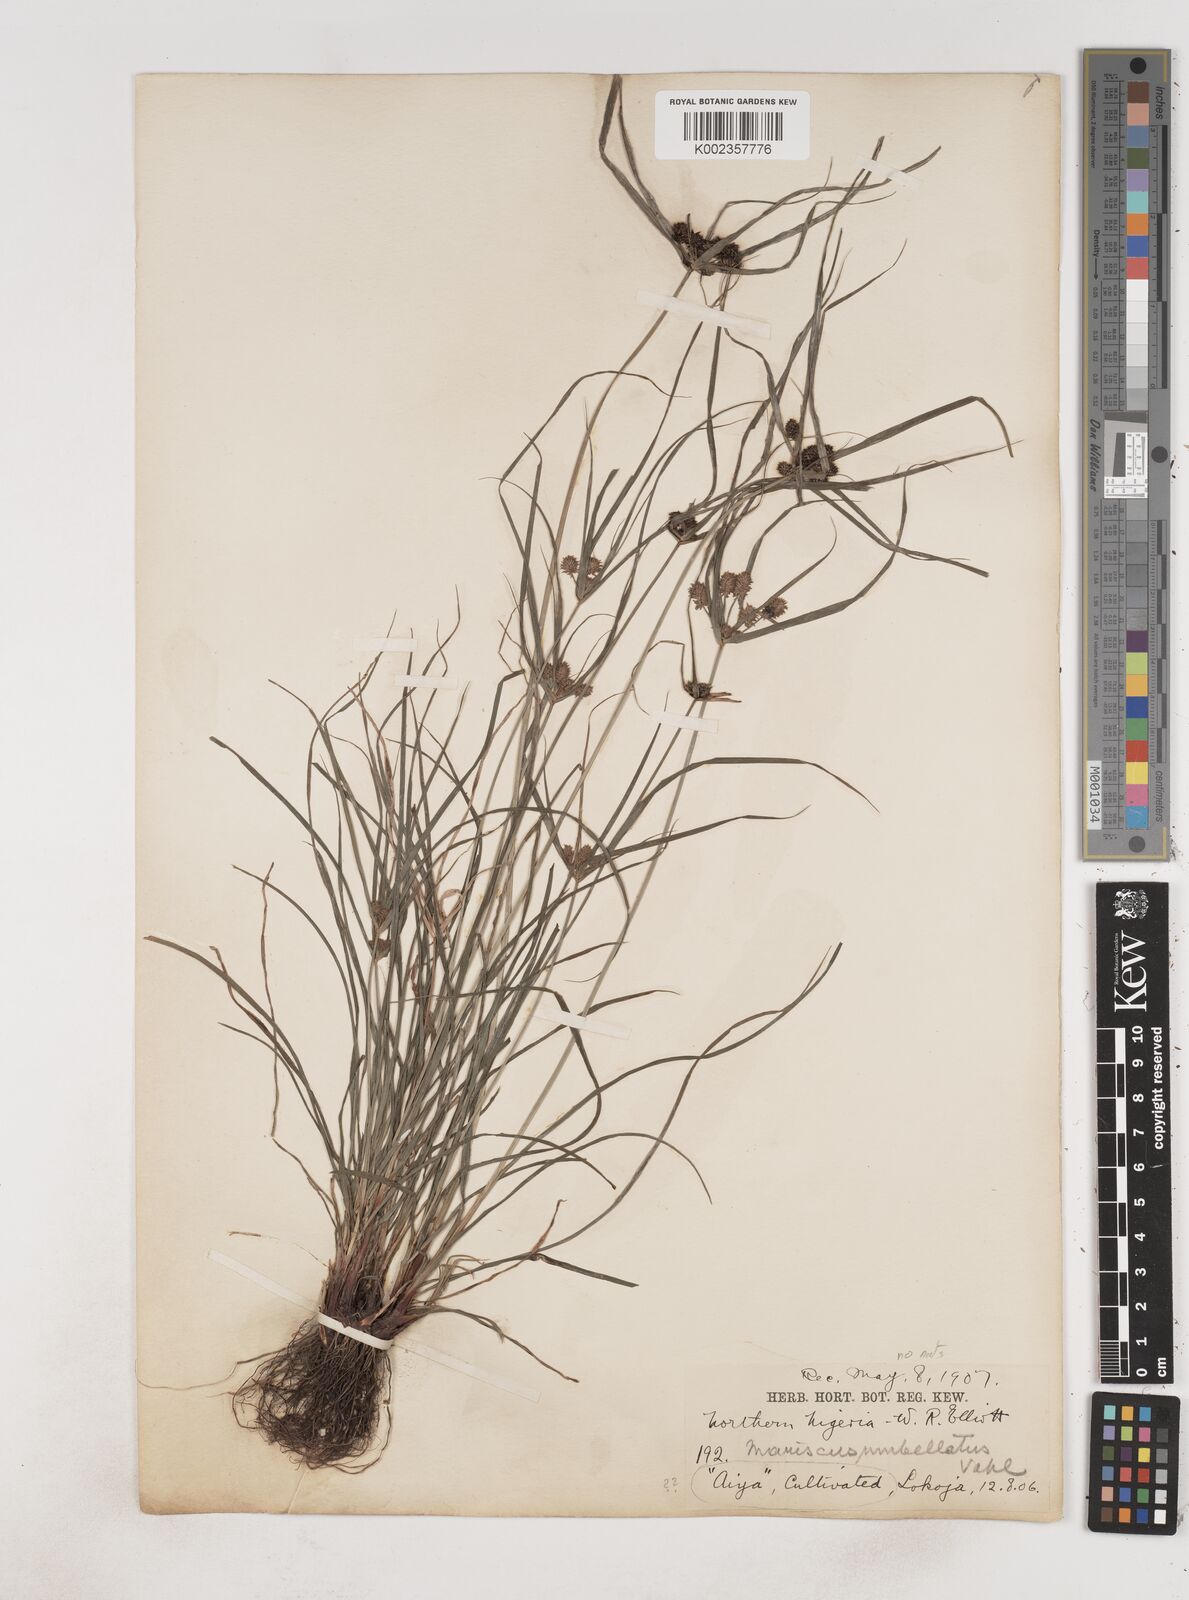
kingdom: Plantae
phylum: Tracheophyta
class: Liliopsida
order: Poales
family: Cyperaceae
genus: Cyperus
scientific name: Cyperus sublimis
